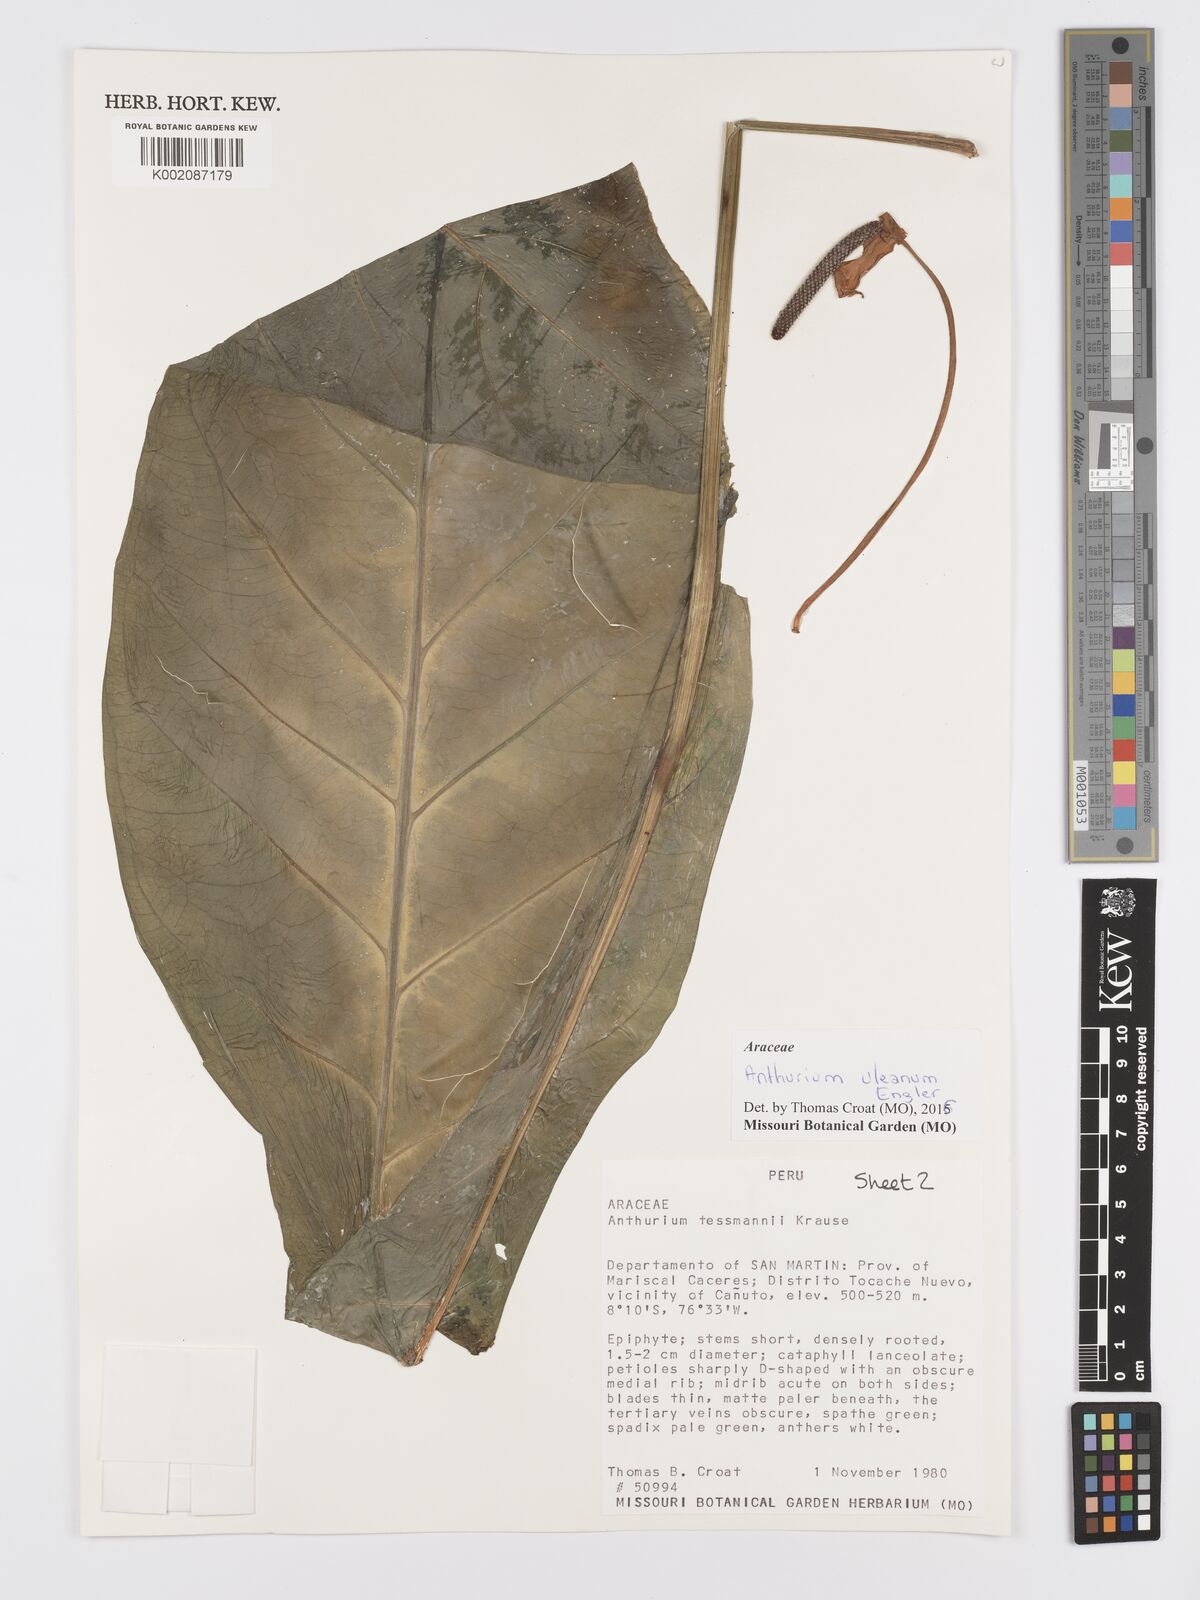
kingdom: Plantae
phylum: Tracheophyta
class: Liliopsida
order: Alismatales
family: Araceae
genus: Anthurium
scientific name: Anthurium uleanum
